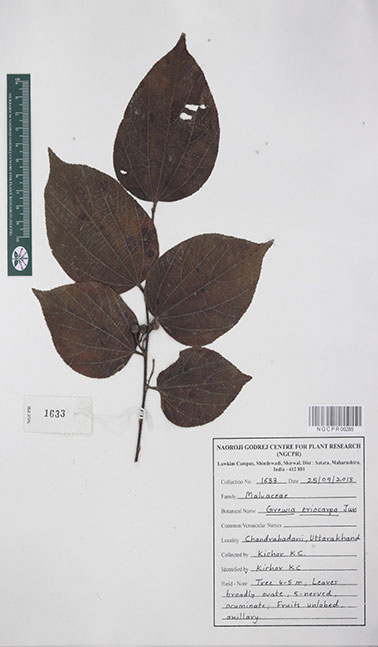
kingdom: Plantae
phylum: Tracheophyta
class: Magnoliopsida
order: Malvales
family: Malvaceae
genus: Grewia
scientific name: Grewia eriocarpa
